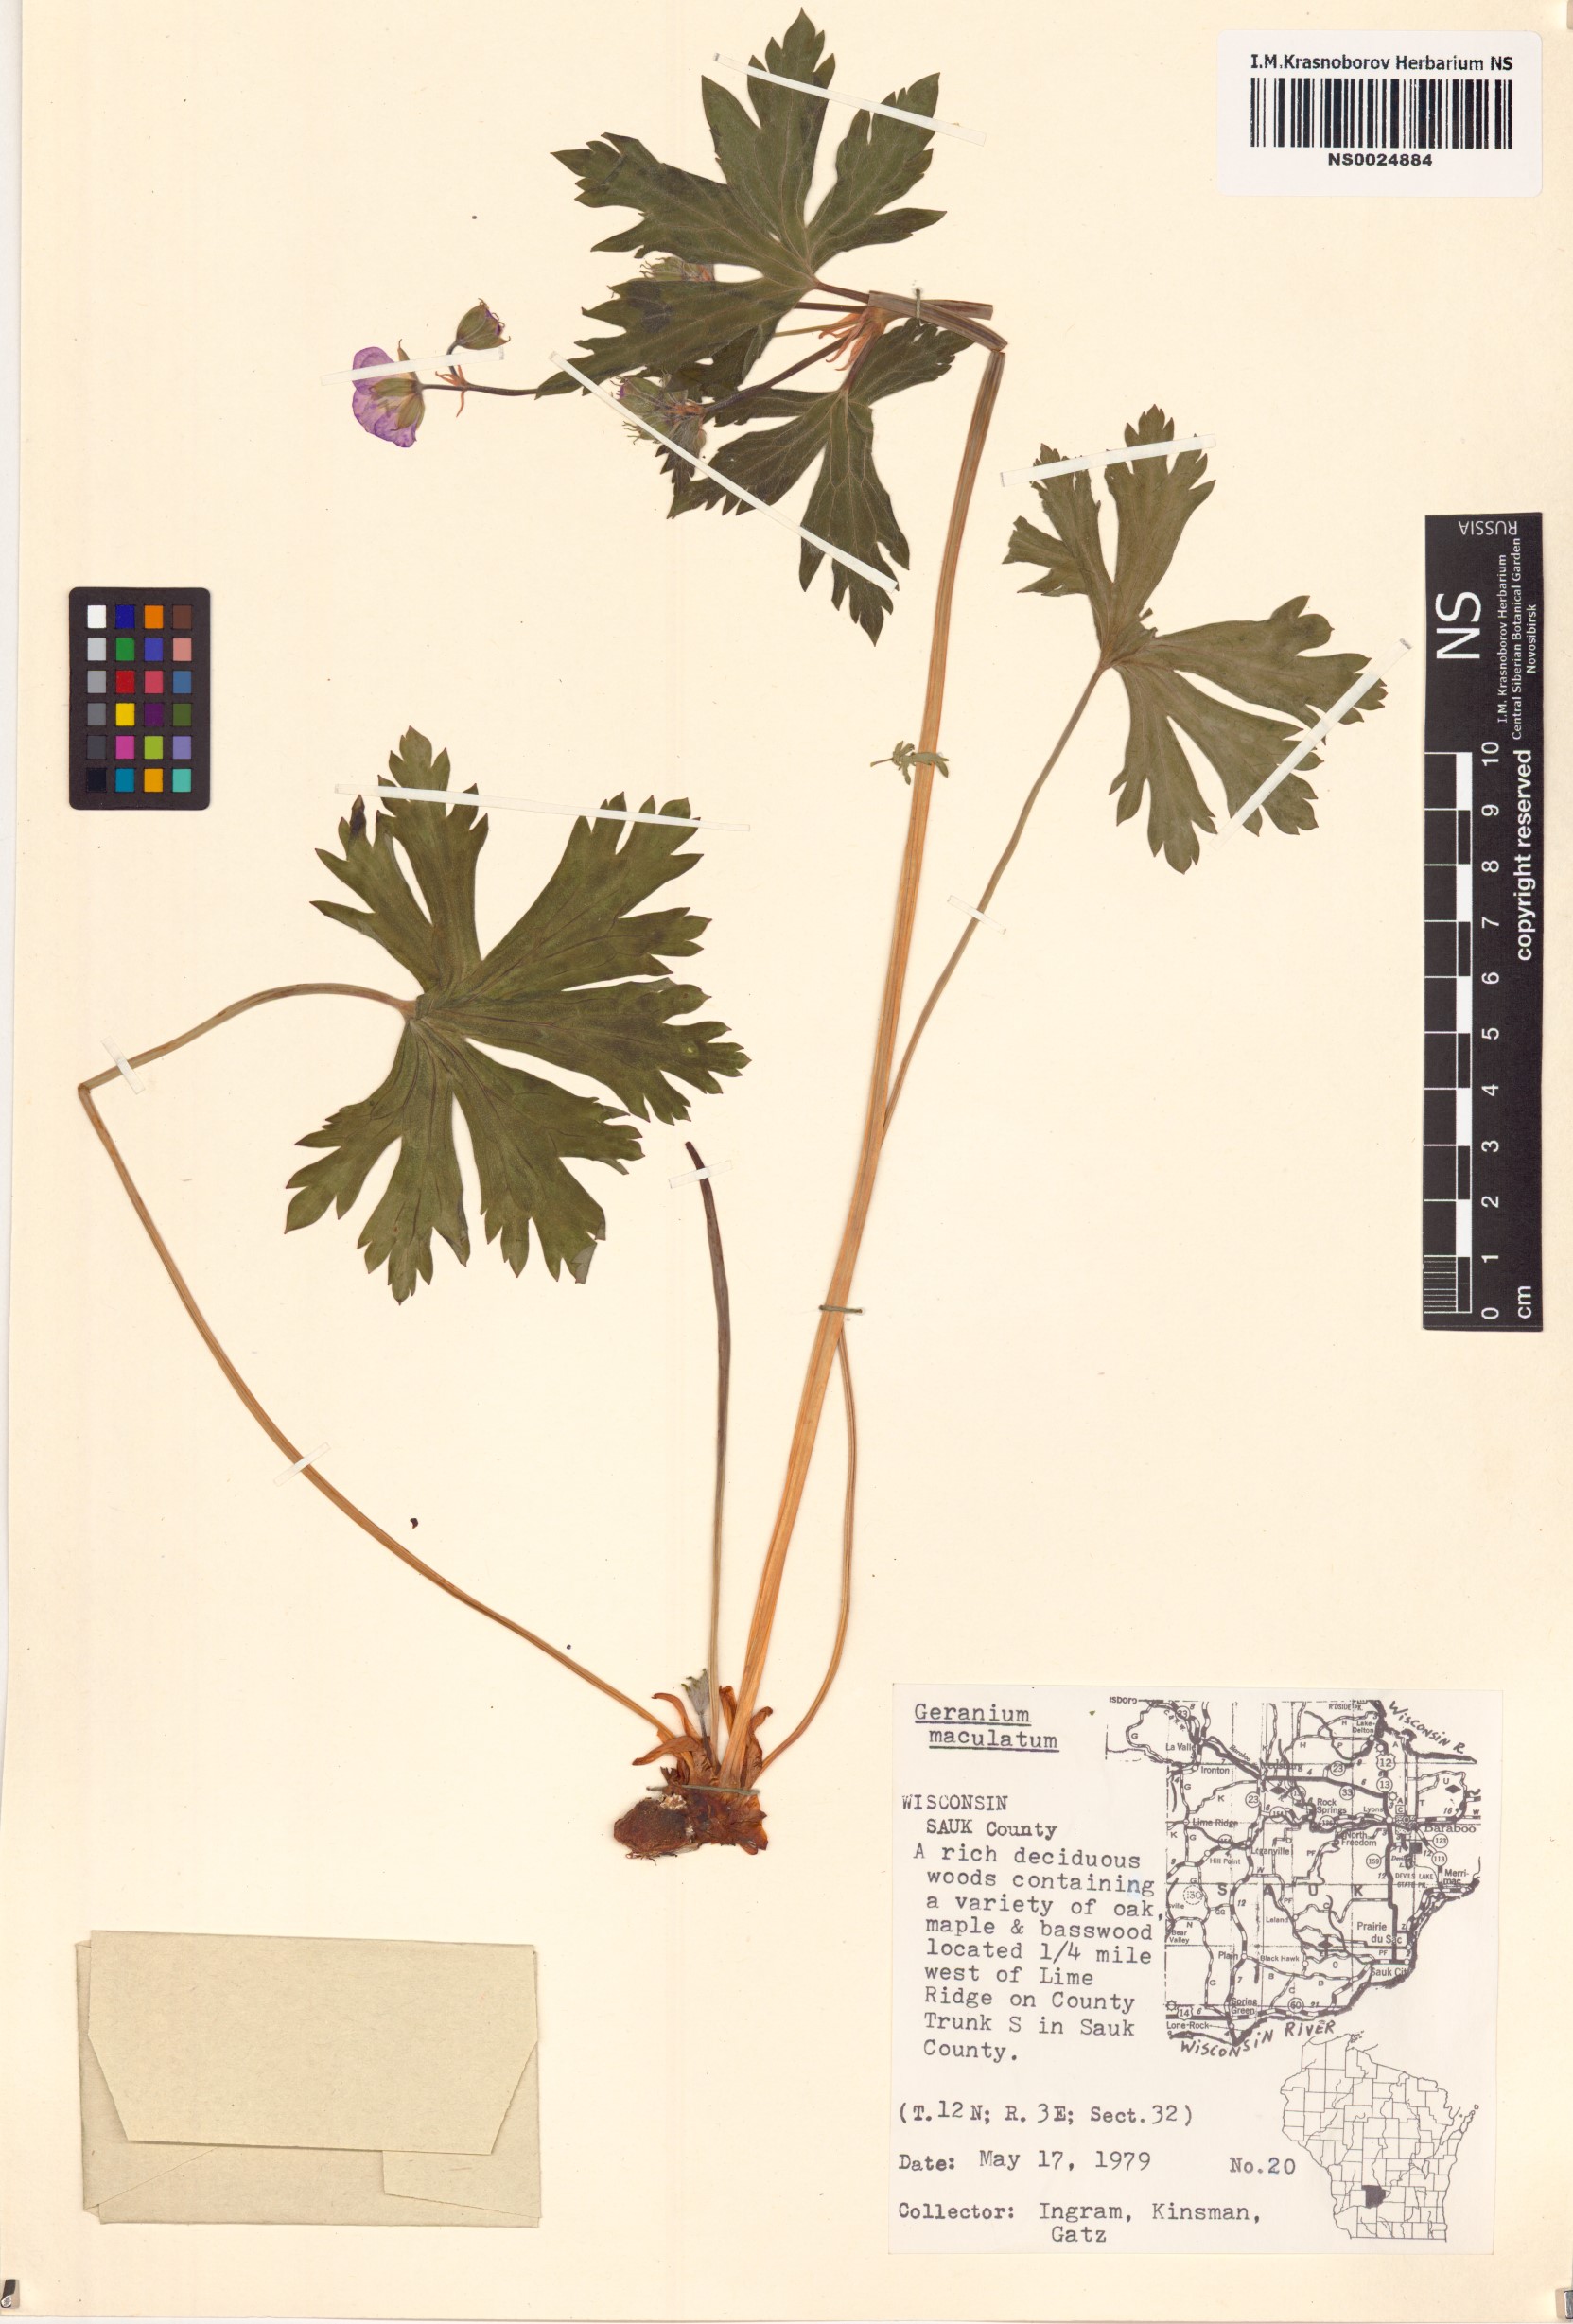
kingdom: Plantae
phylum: Tracheophyta
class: Magnoliopsida
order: Geraniales
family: Geraniaceae
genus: Geranium
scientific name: Geranium maculatum
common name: Spotted geranium
